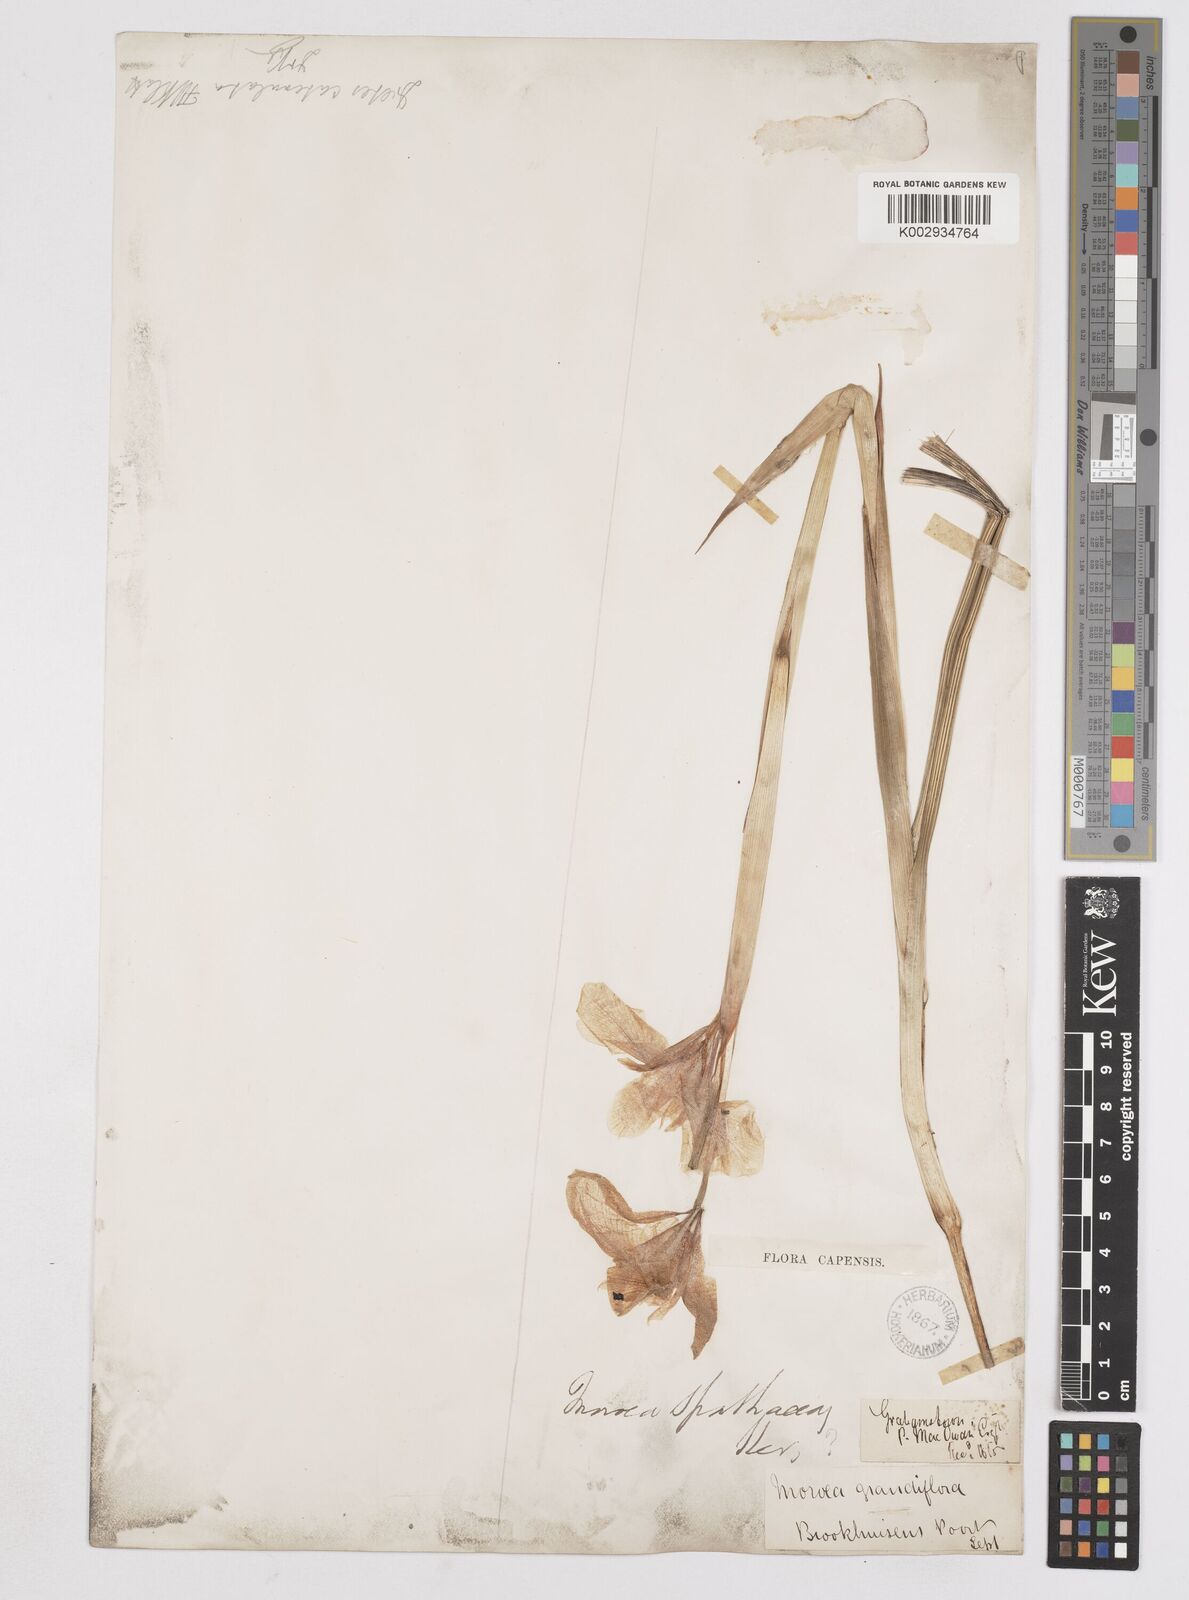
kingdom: Plantae
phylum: Tracheophyta
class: Liliopsida
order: Asparagales
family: Iridaceae
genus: Moraea
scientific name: Moraea spathulata
